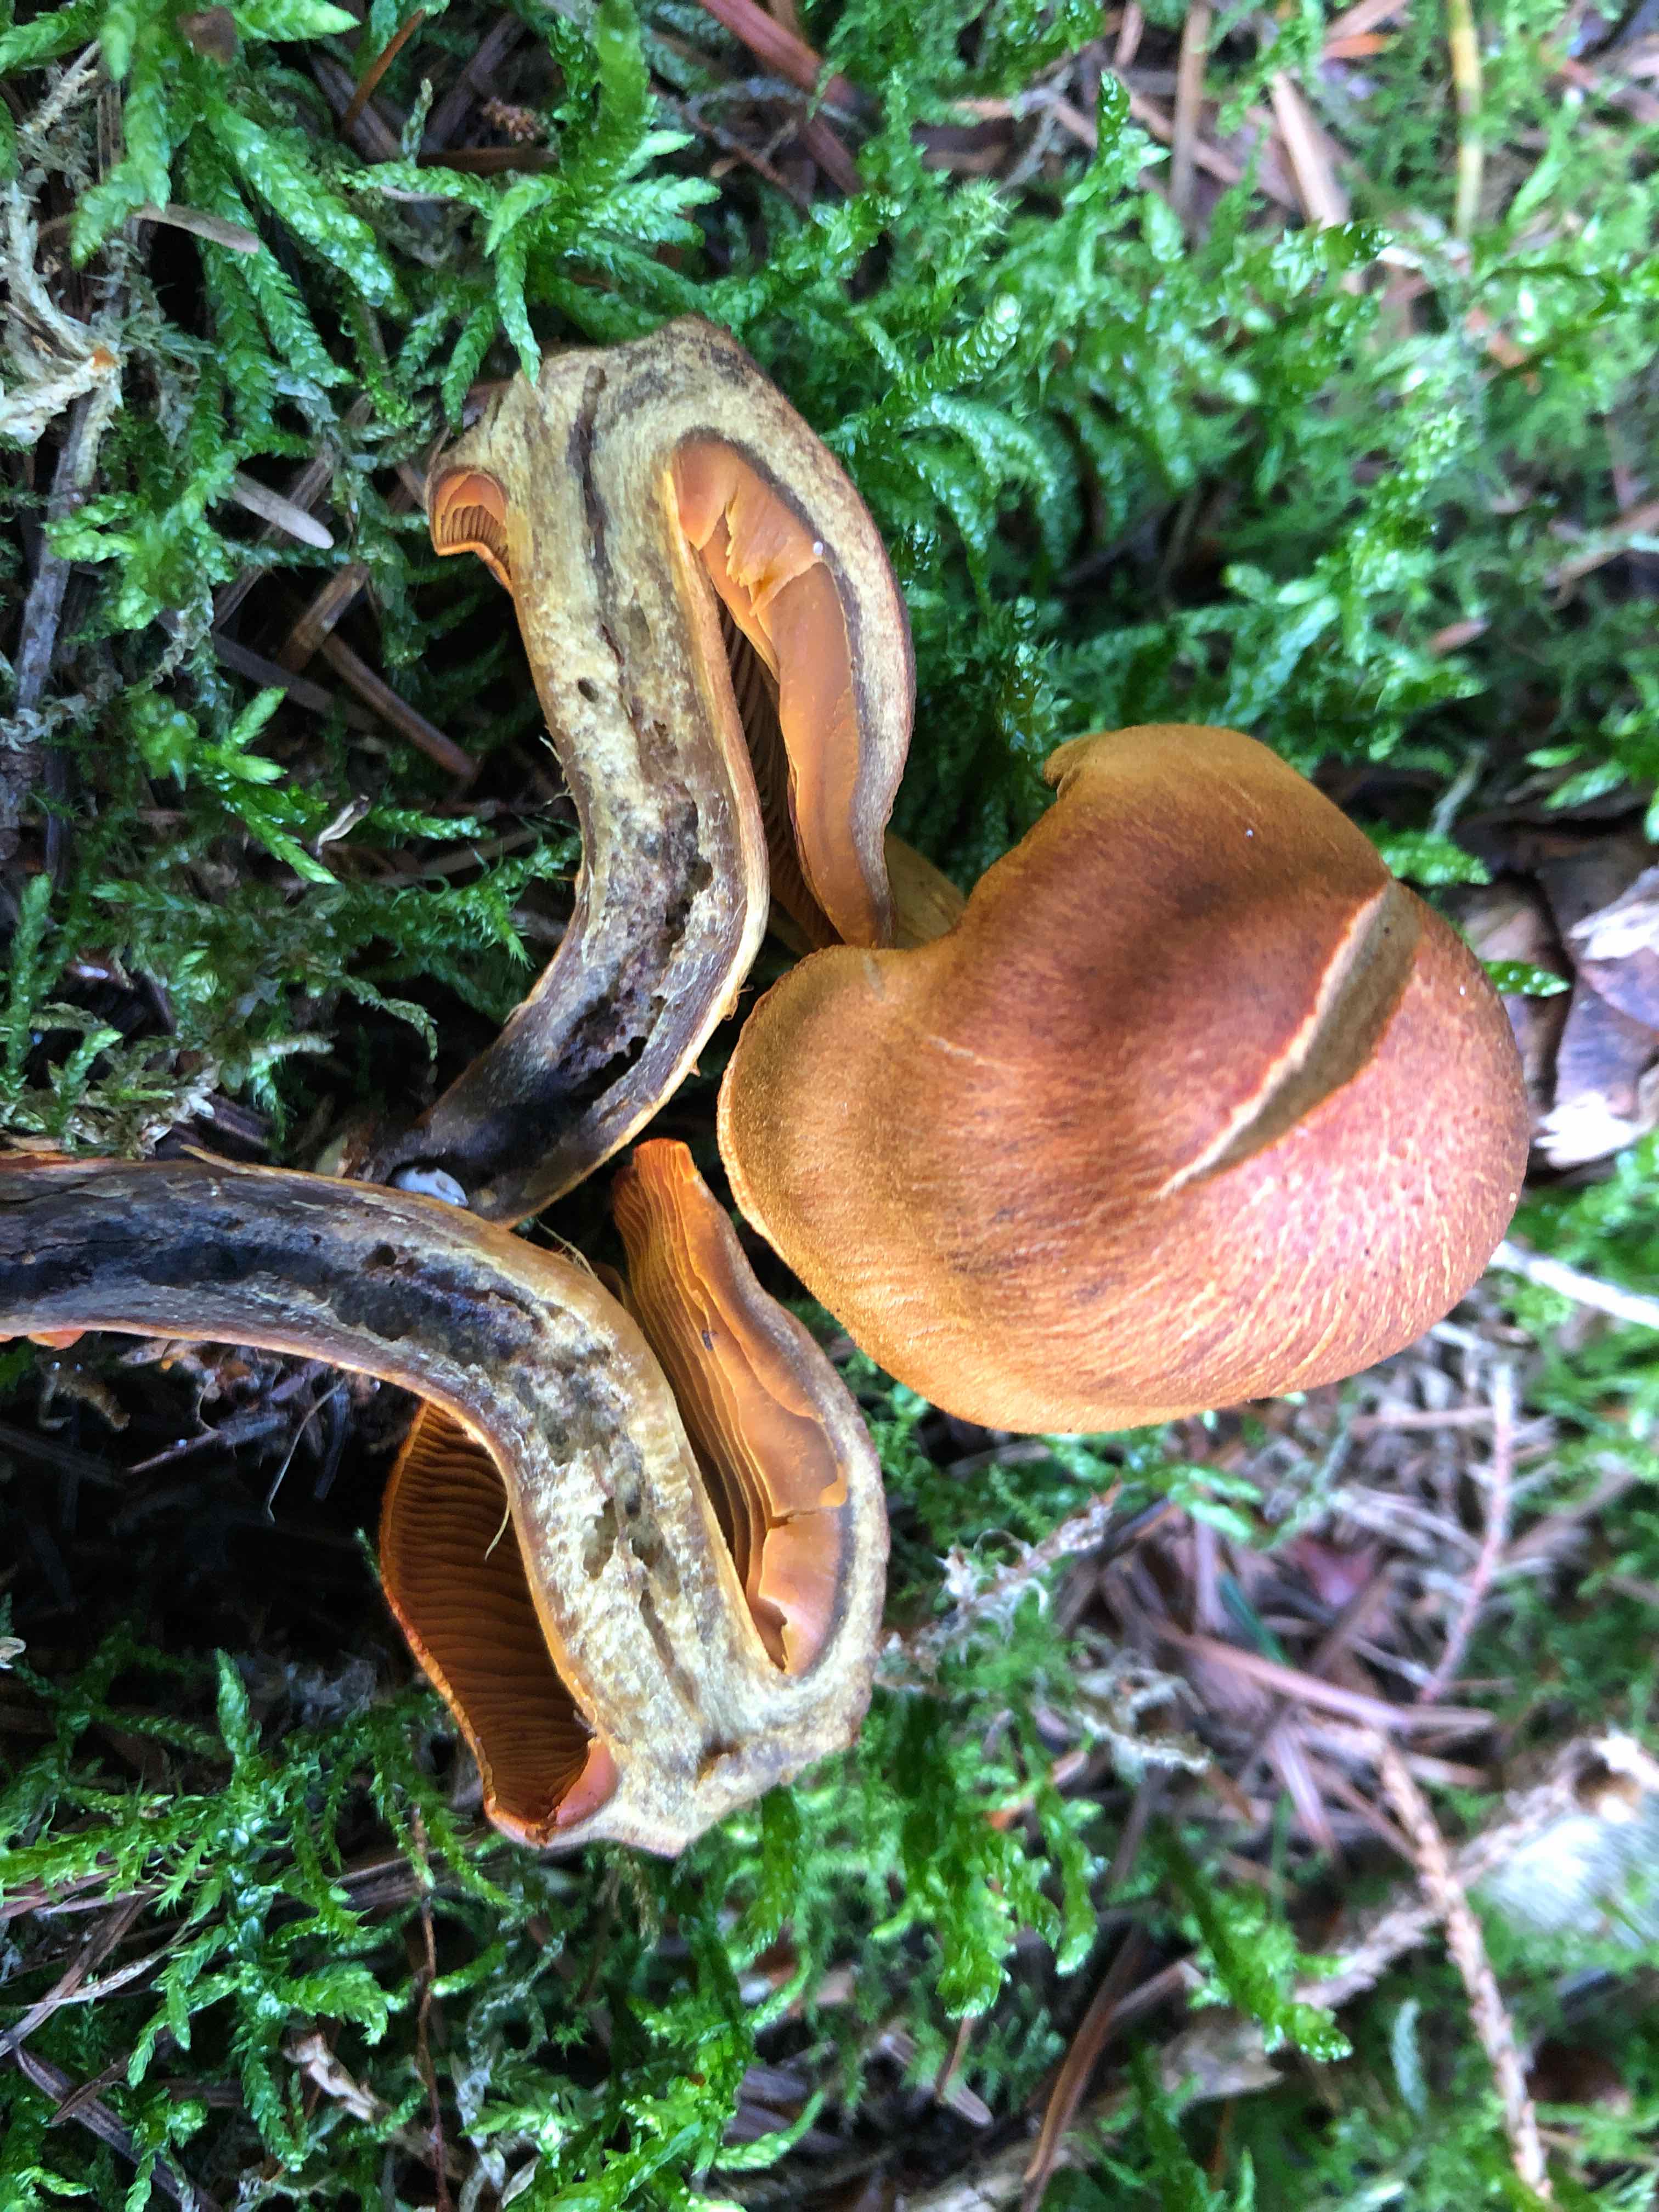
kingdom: Fungi
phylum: Basidiomycota
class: Agaricomycetes
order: Agaricales
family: Cortinariaceae
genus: Cortinarius
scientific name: Cortinarius malicorius
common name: grønkødet slørhat
